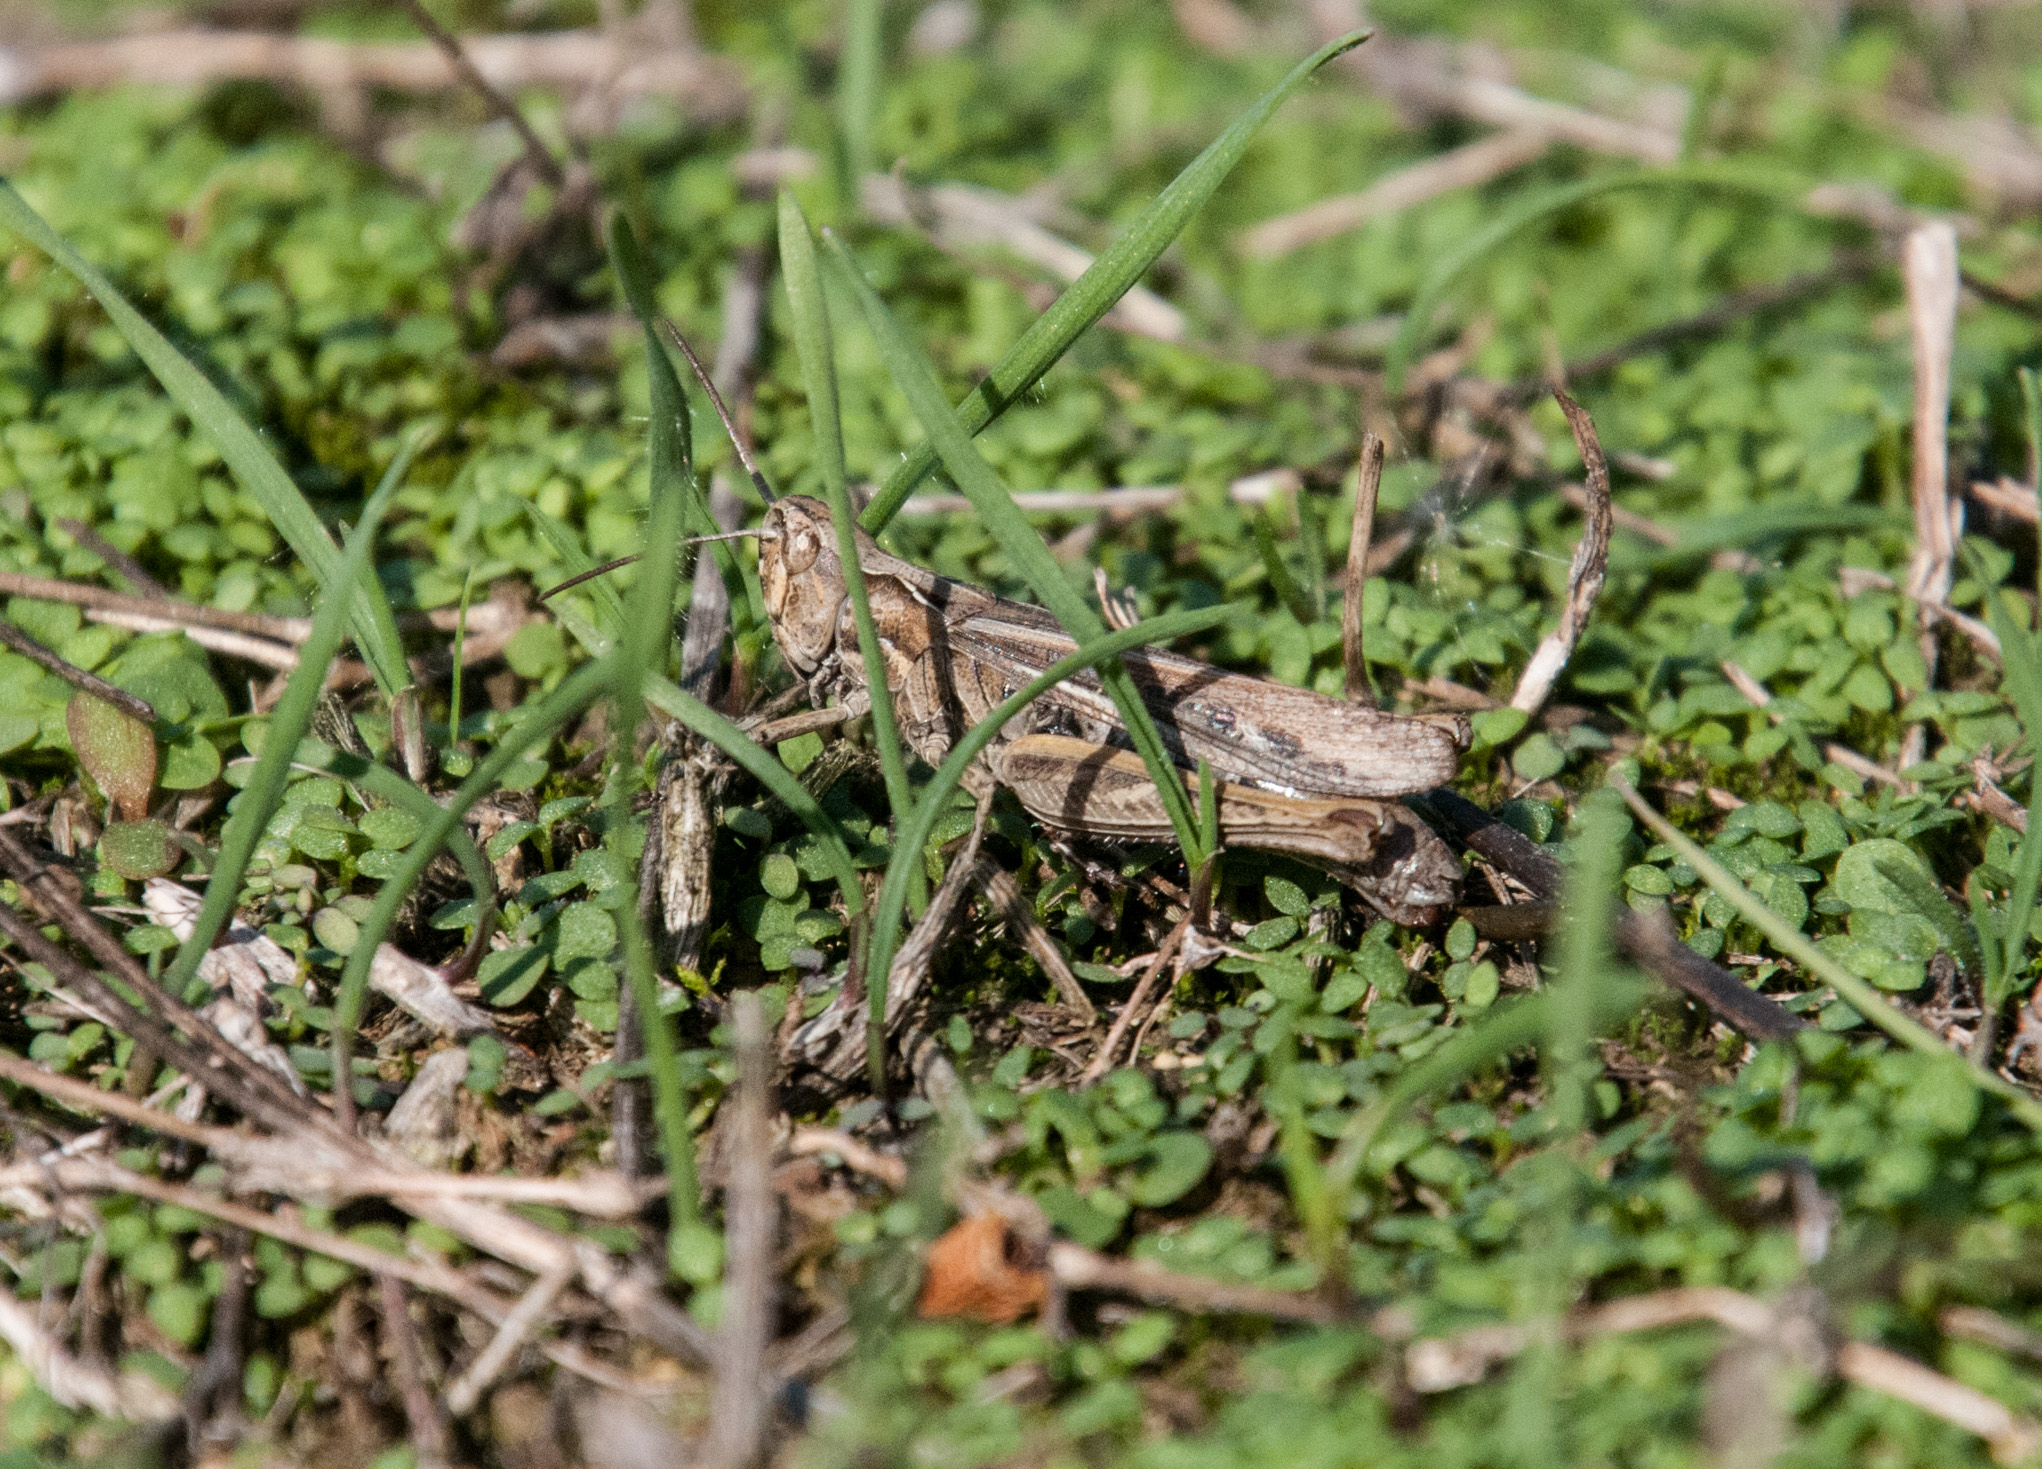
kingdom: Animalia
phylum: Arthropoda
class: Insecta
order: Orthoptera
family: Acrididae
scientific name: Acrididae
